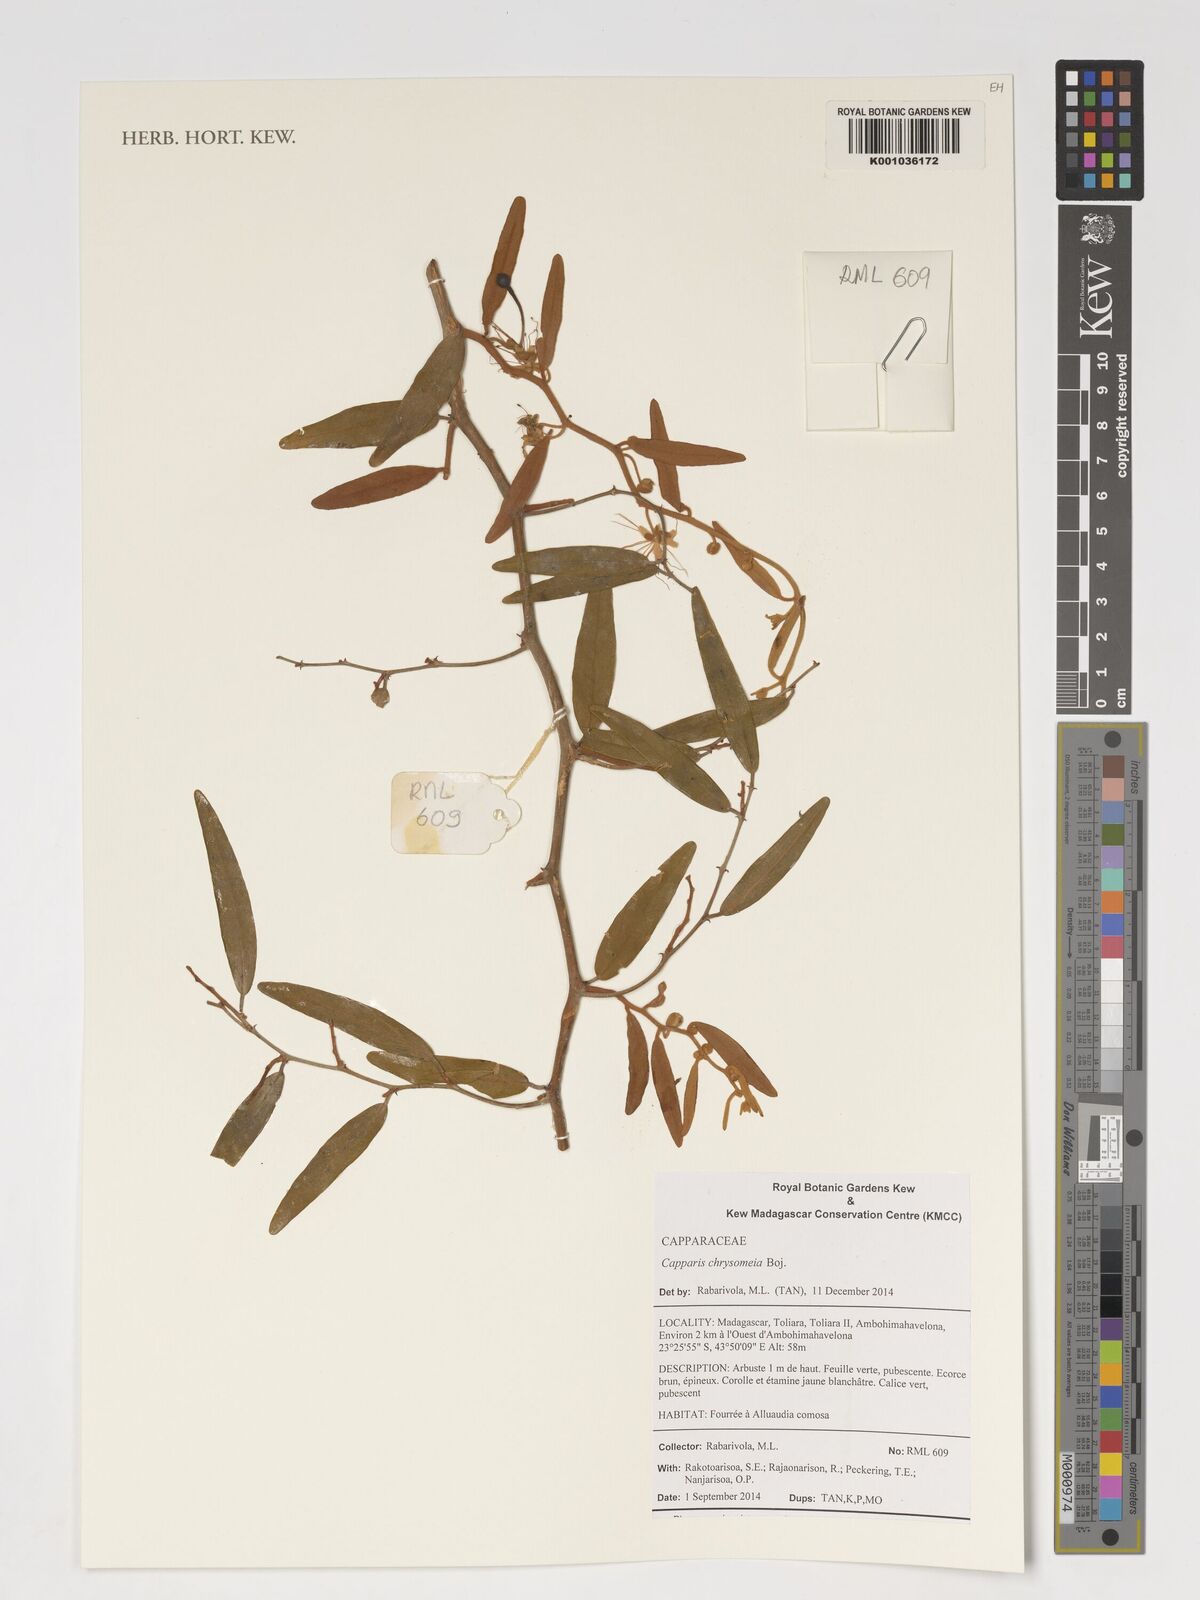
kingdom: Plantae
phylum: Tracheophyta
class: Magnoliopsida
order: Brassicales
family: Capparaceae
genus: Capparis
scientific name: Capparis chrysomeia
